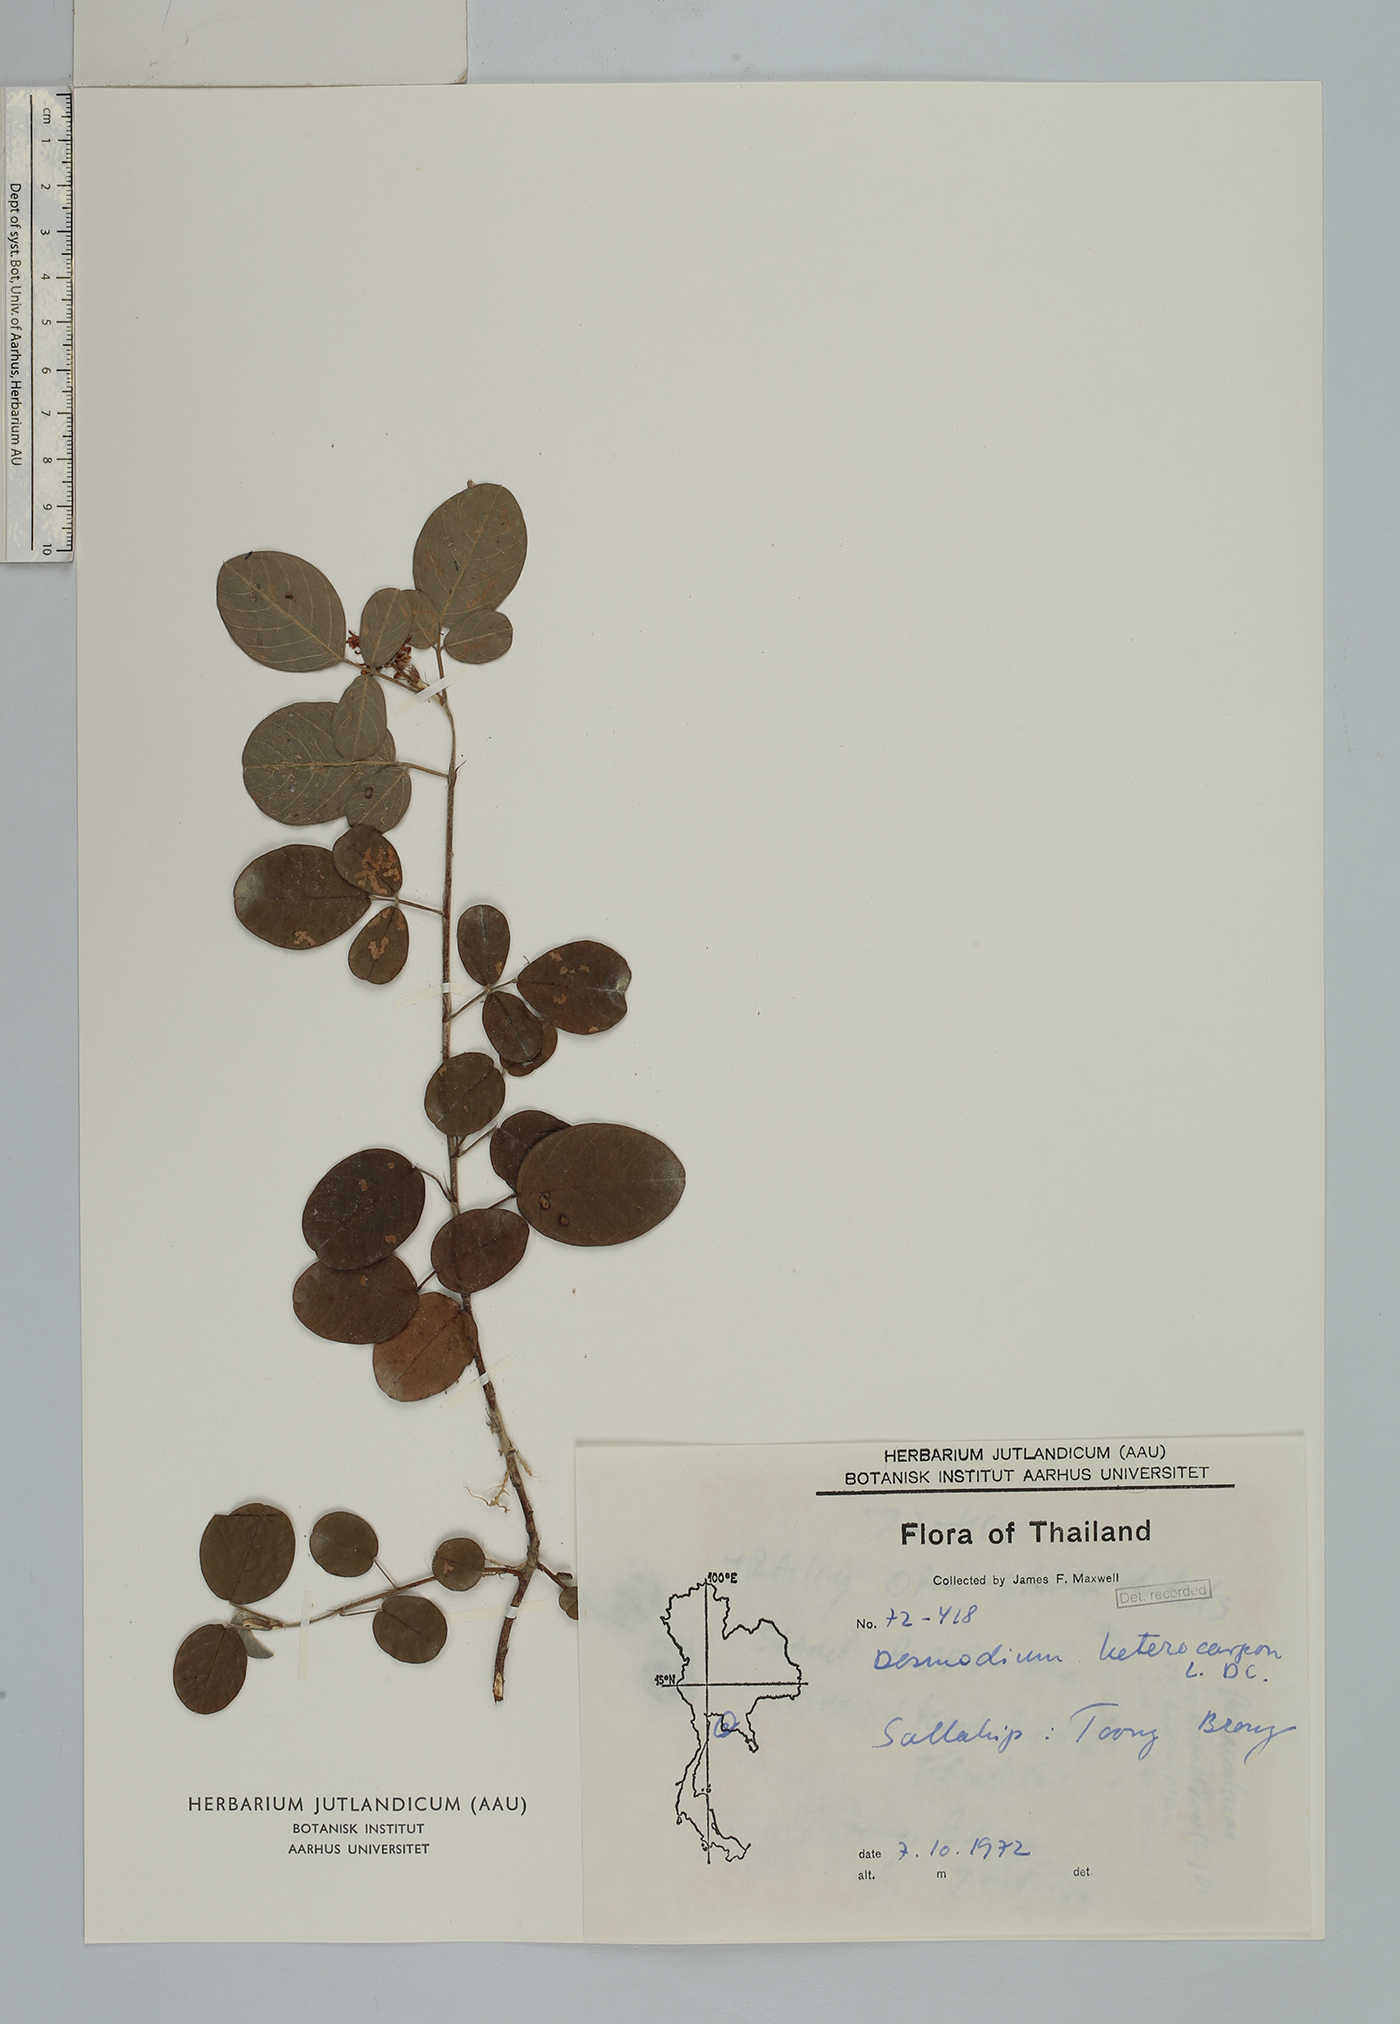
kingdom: Plantae
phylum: Tracheophyta
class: Magnoliopsida
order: Fabales
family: Fabaceae
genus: Grona
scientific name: Grona heterocarpos
